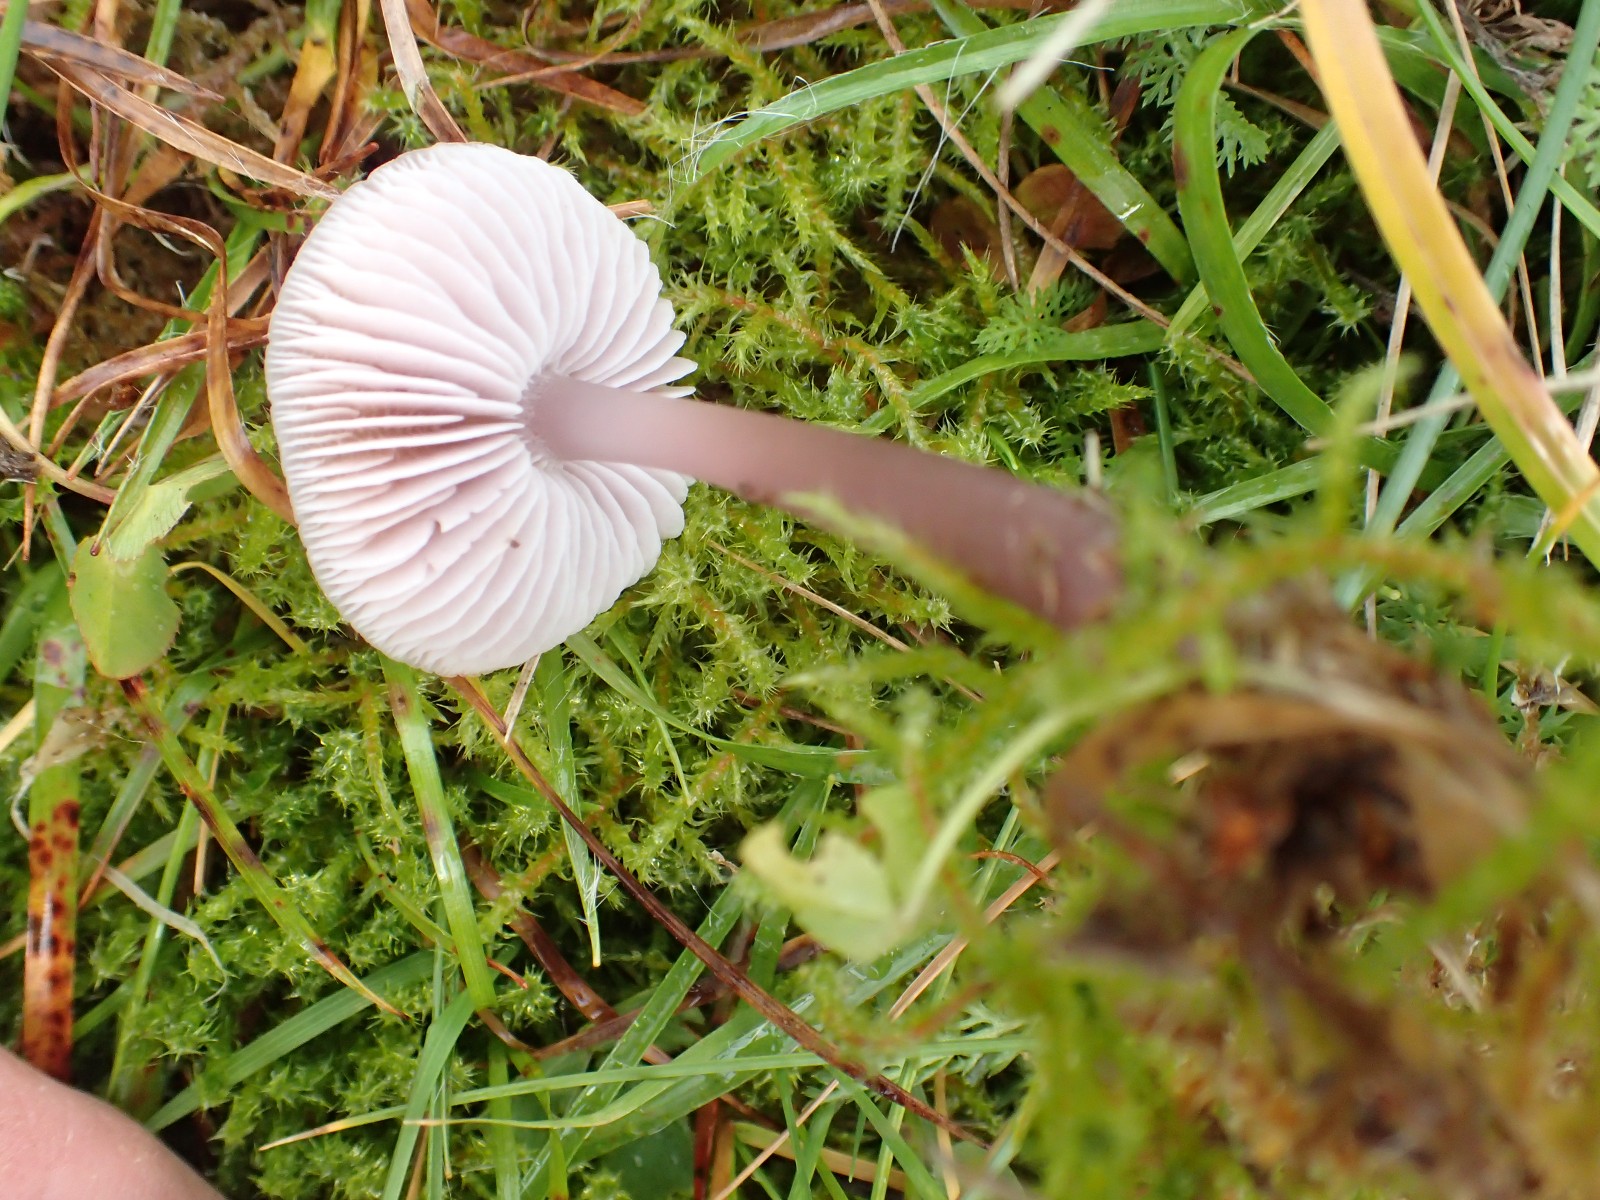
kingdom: Fungi
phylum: Basidiomycota
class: Agaricomycetes
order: Agaricales
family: Mycenaceae
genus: Mycena
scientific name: Mycena luteovariegata
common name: lillagul huesvamp
